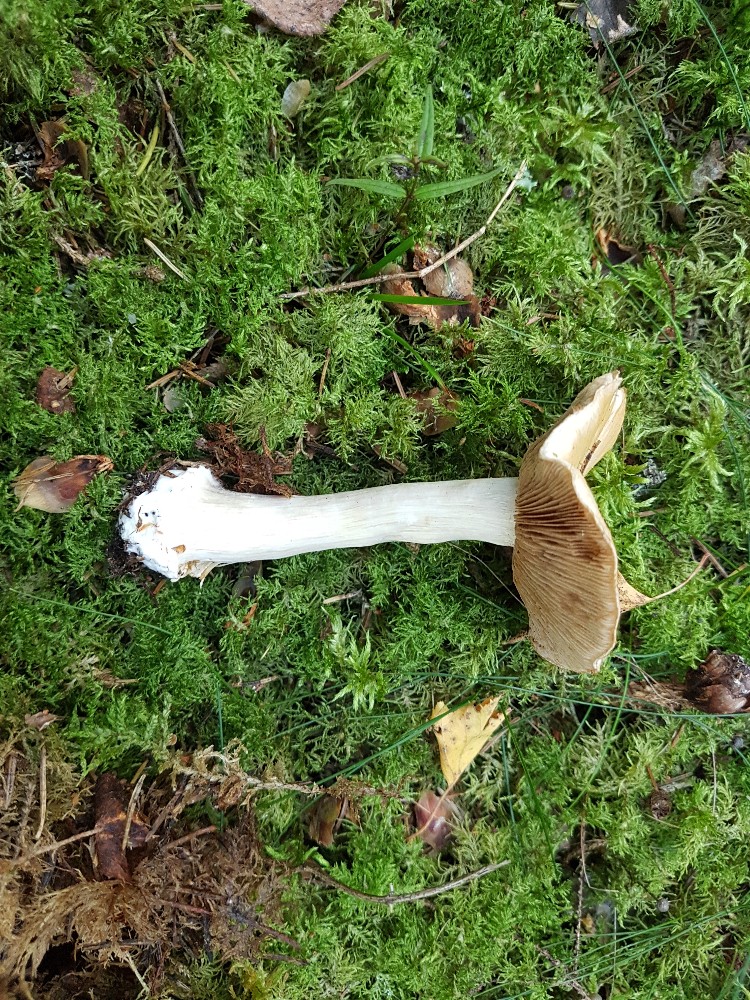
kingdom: Fungi
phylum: Basidiomycota
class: Agaricomycetes
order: Agaricales
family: Cortinariaceae
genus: Cortinarius
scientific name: Cortinarius caesiostramineus
